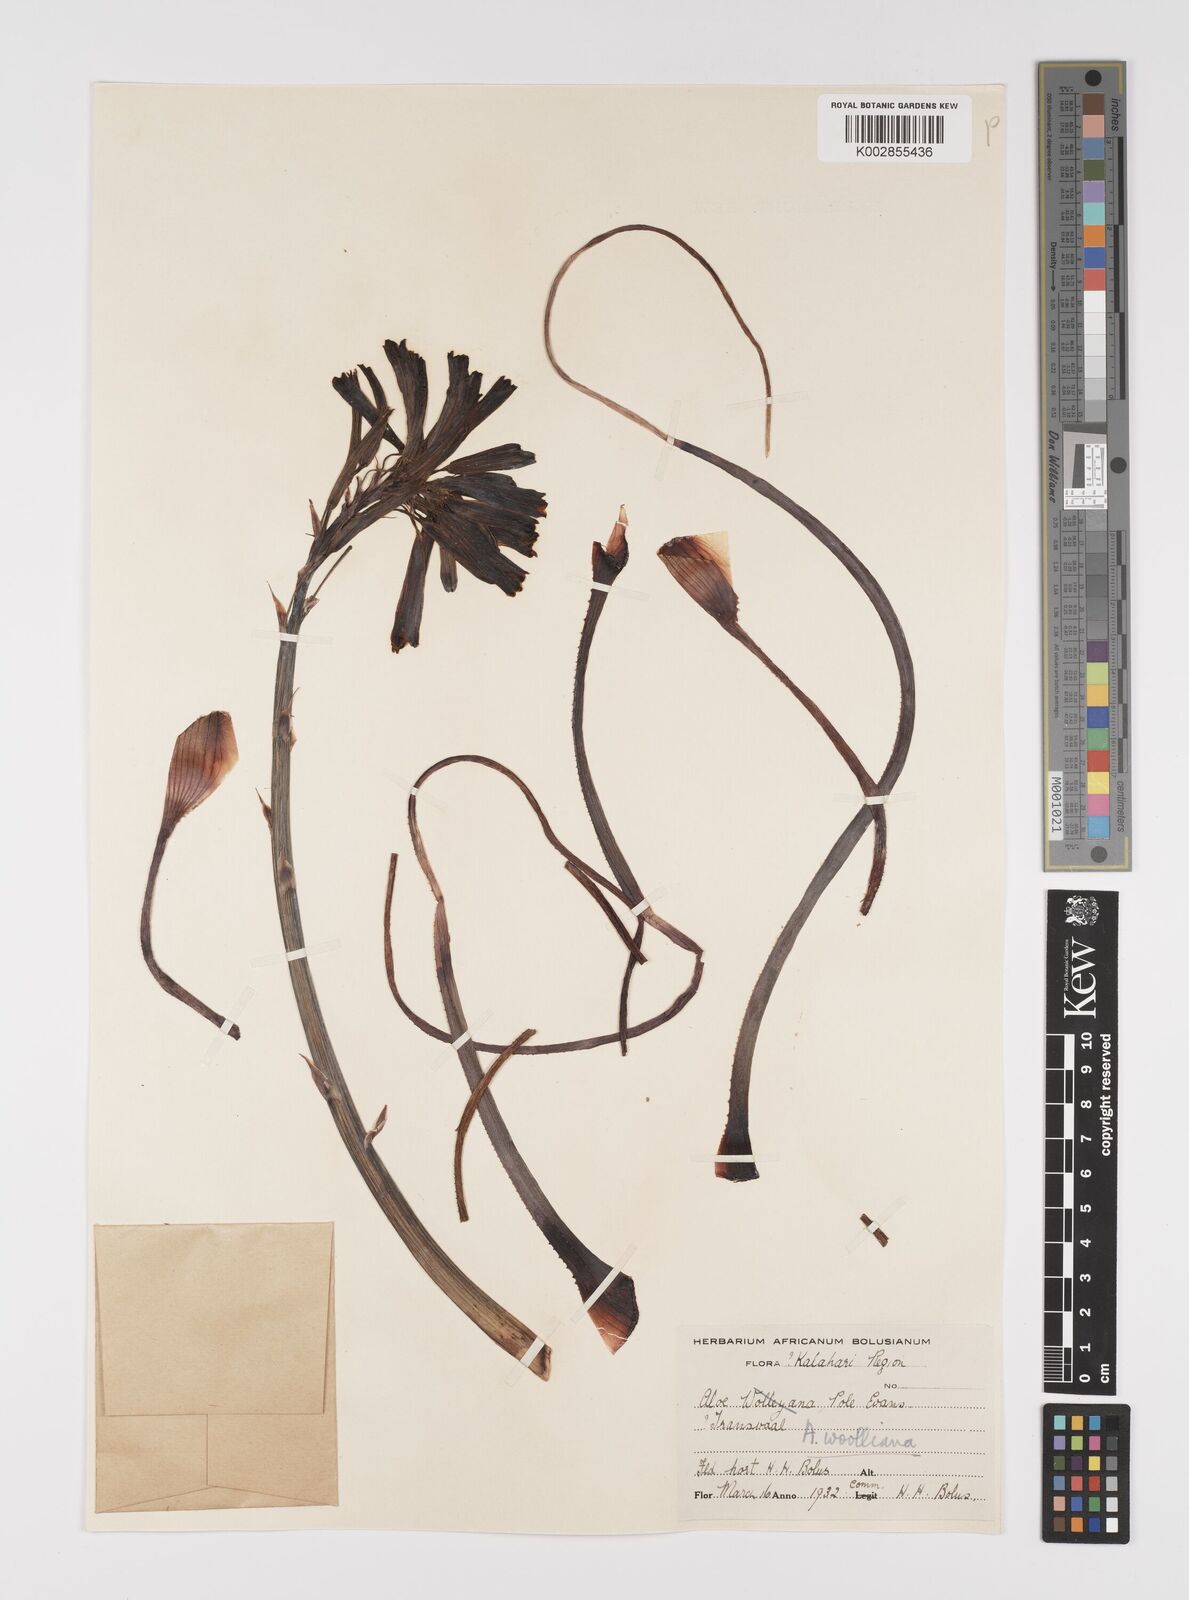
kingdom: Plantae
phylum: Tracheophyta
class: Liliopsida
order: Asparagales
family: Asphodelaceae
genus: Aloe
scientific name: Aloe chortolirioides
